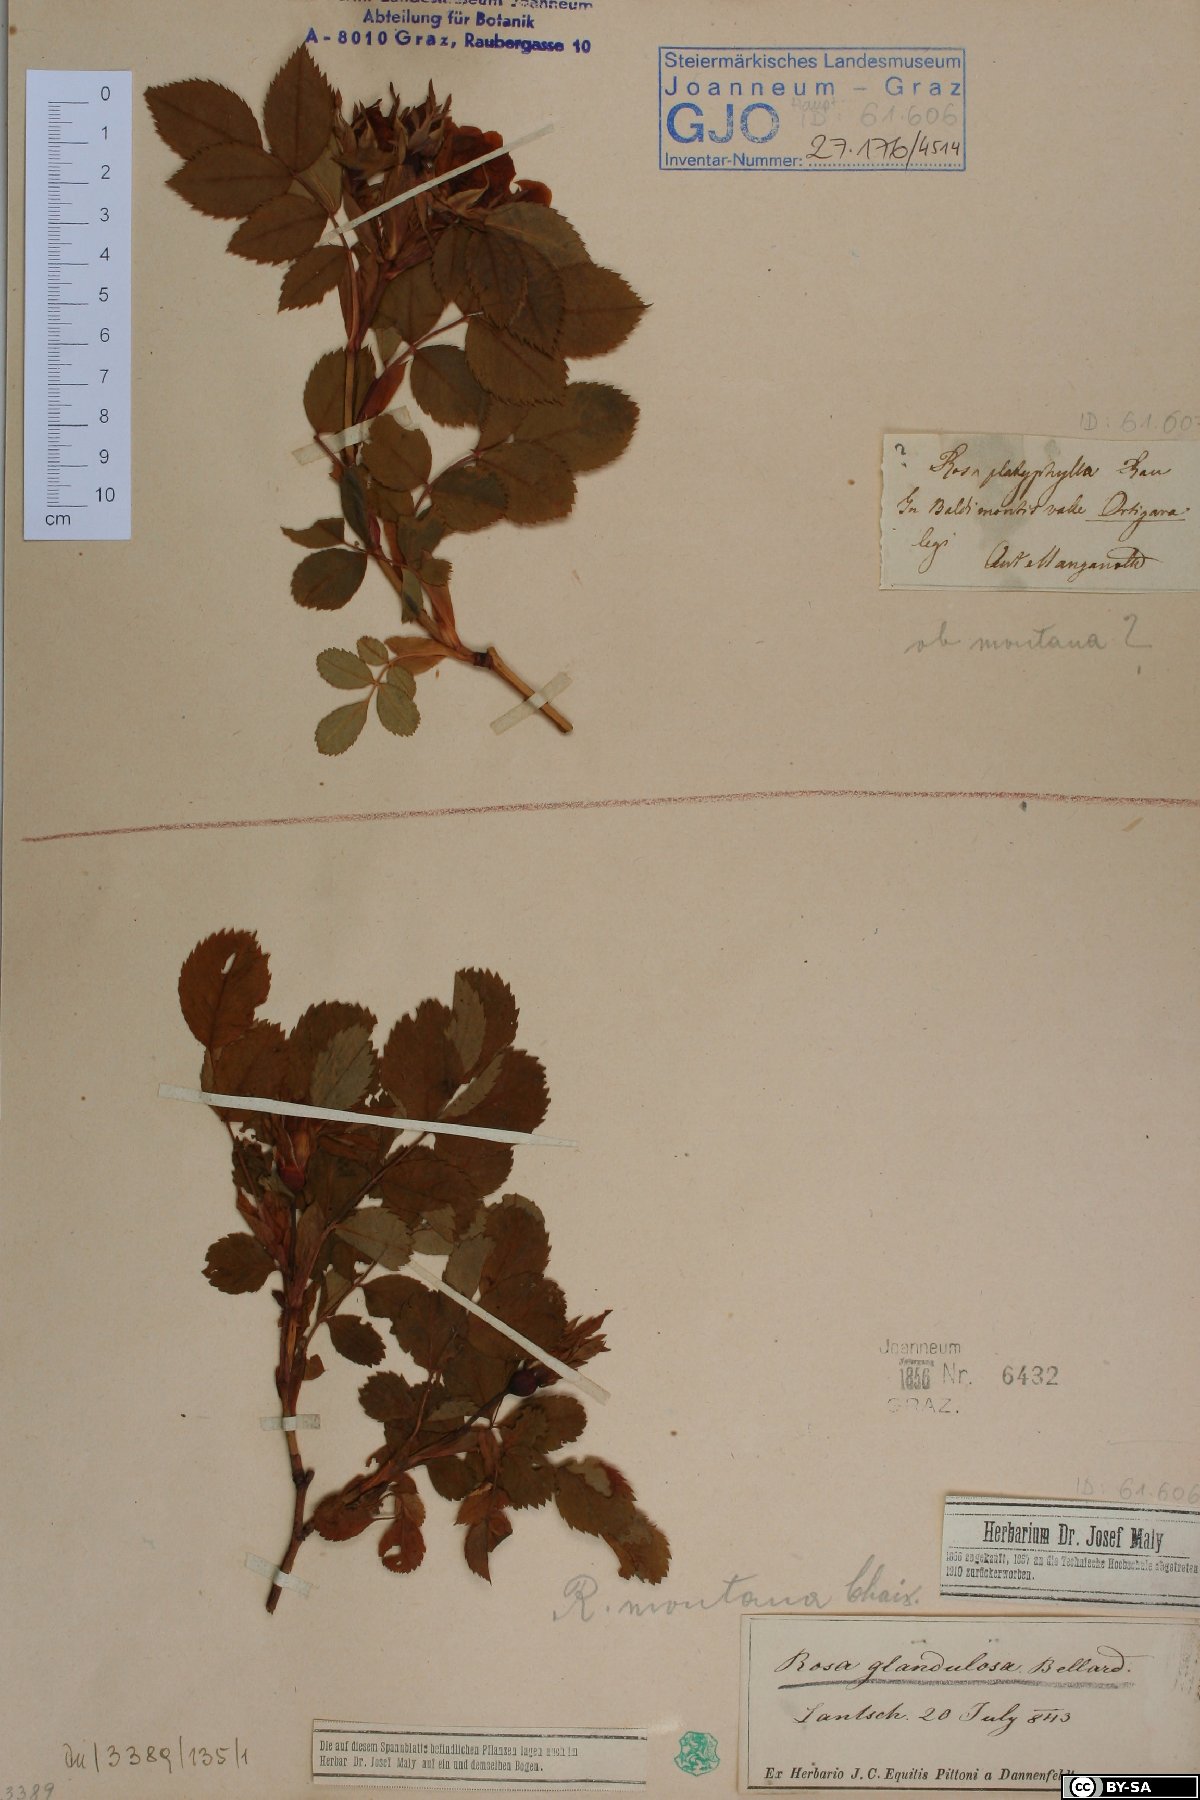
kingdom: Plantae
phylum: Tracheophyta
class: Magnoliopsida
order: Rosales
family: Rosaceae
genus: Rosa
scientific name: Rosa corymbifera
